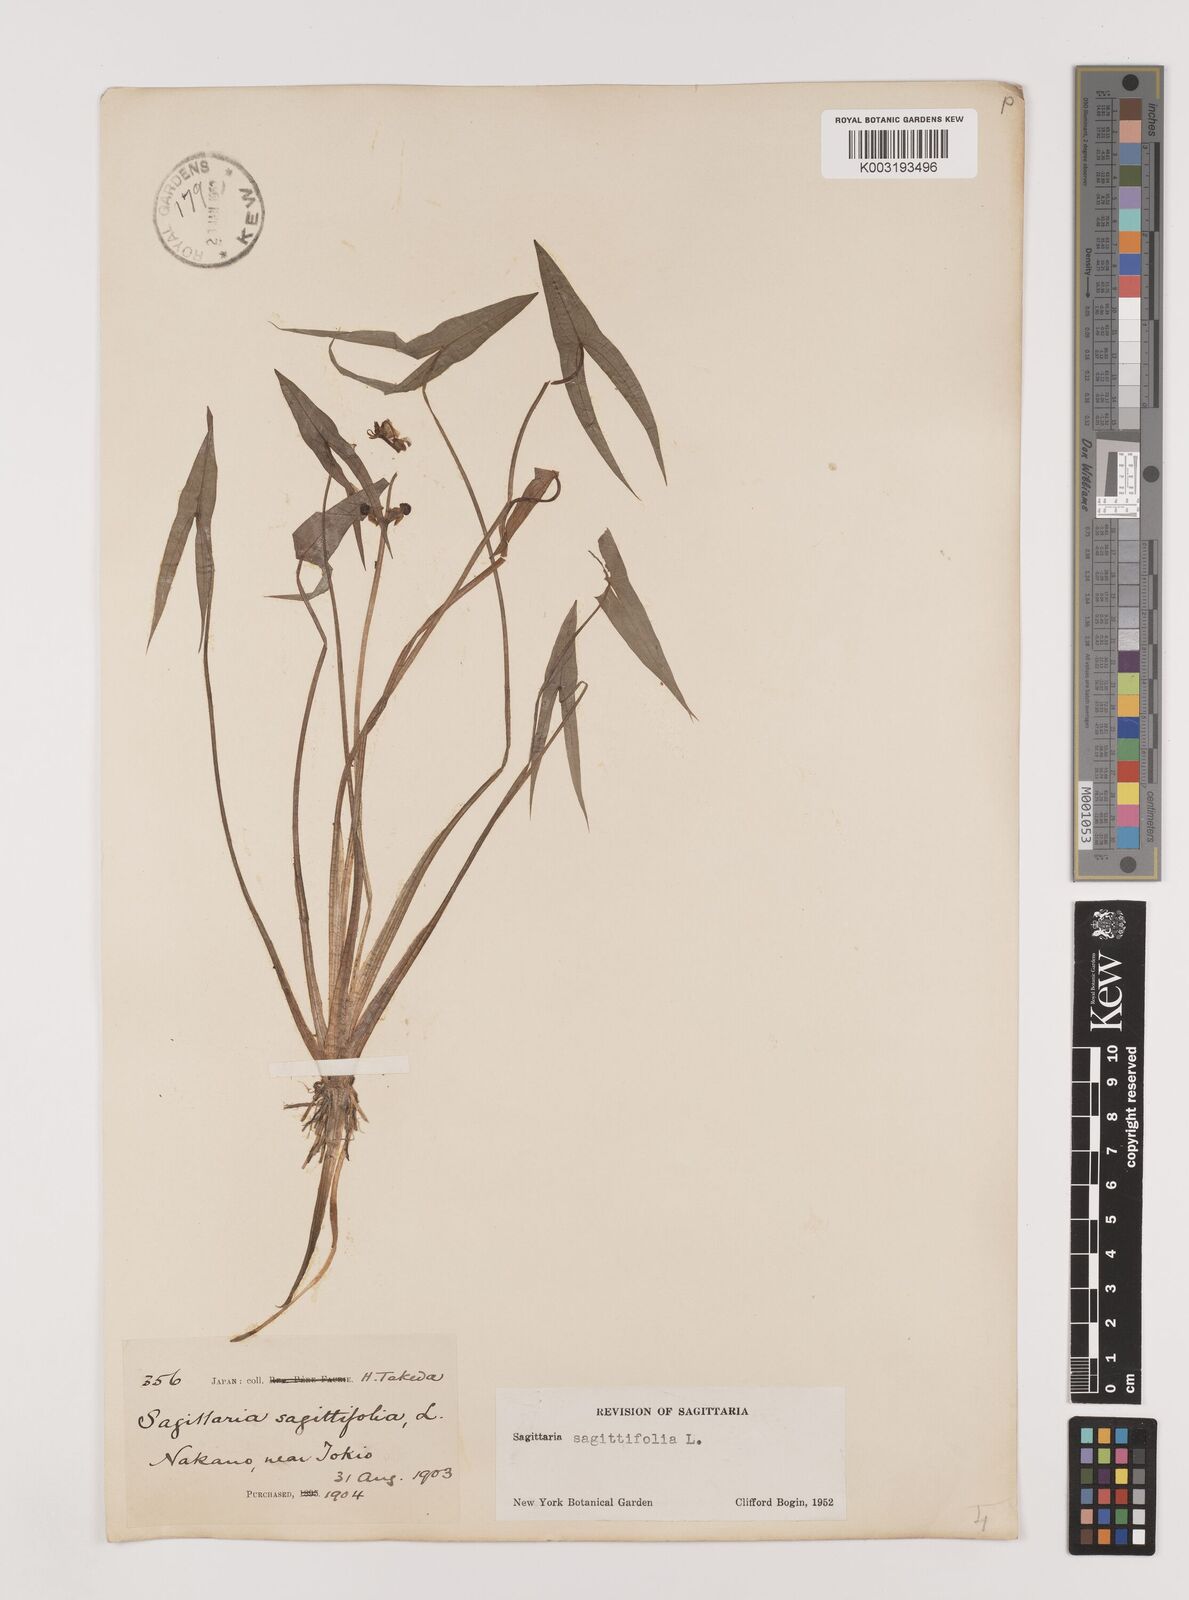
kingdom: Plantae
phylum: Tracheophyta
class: Liliopsida
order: Alismatales
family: Alismataceae
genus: Sagittaria
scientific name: Sagittaria sagittifolia
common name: Arrowhead
